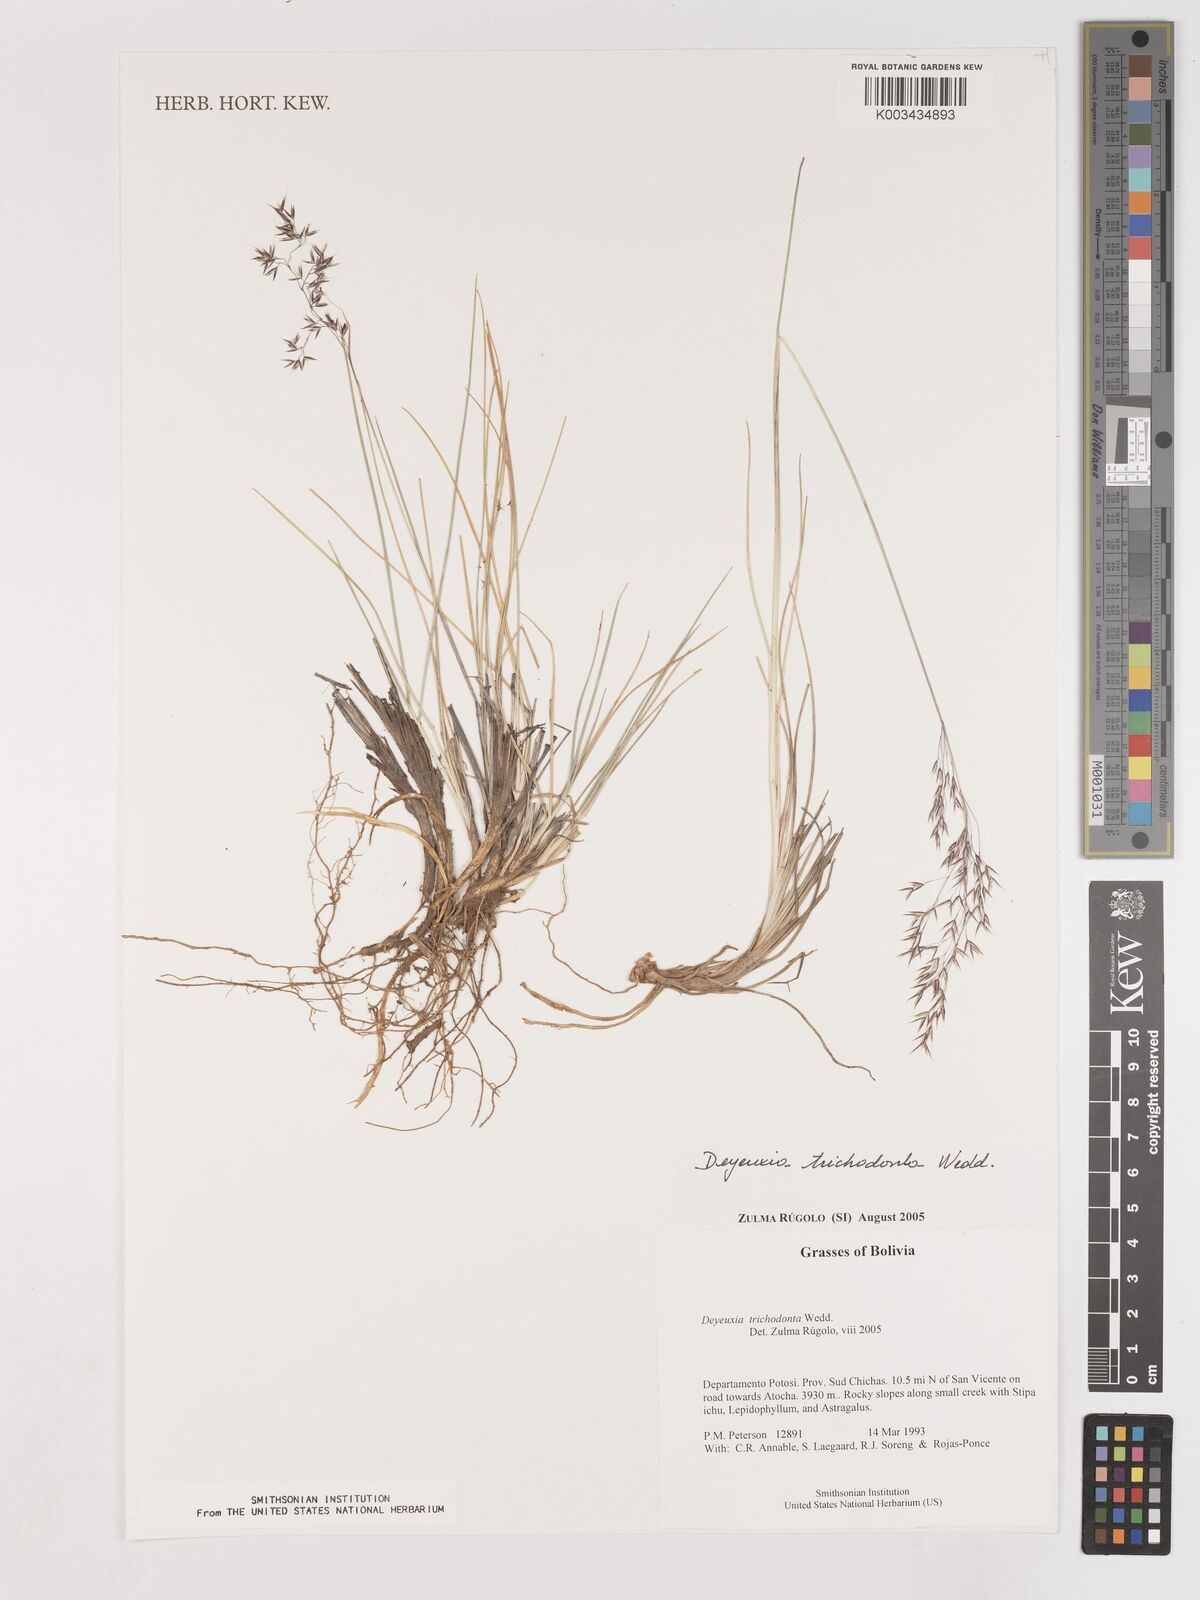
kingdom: Plantae
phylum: Tracheophyta
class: Liliopsida
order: Poales
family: Poaceae
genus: Cinnagrostis
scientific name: Cinnagrostis trichodonta
